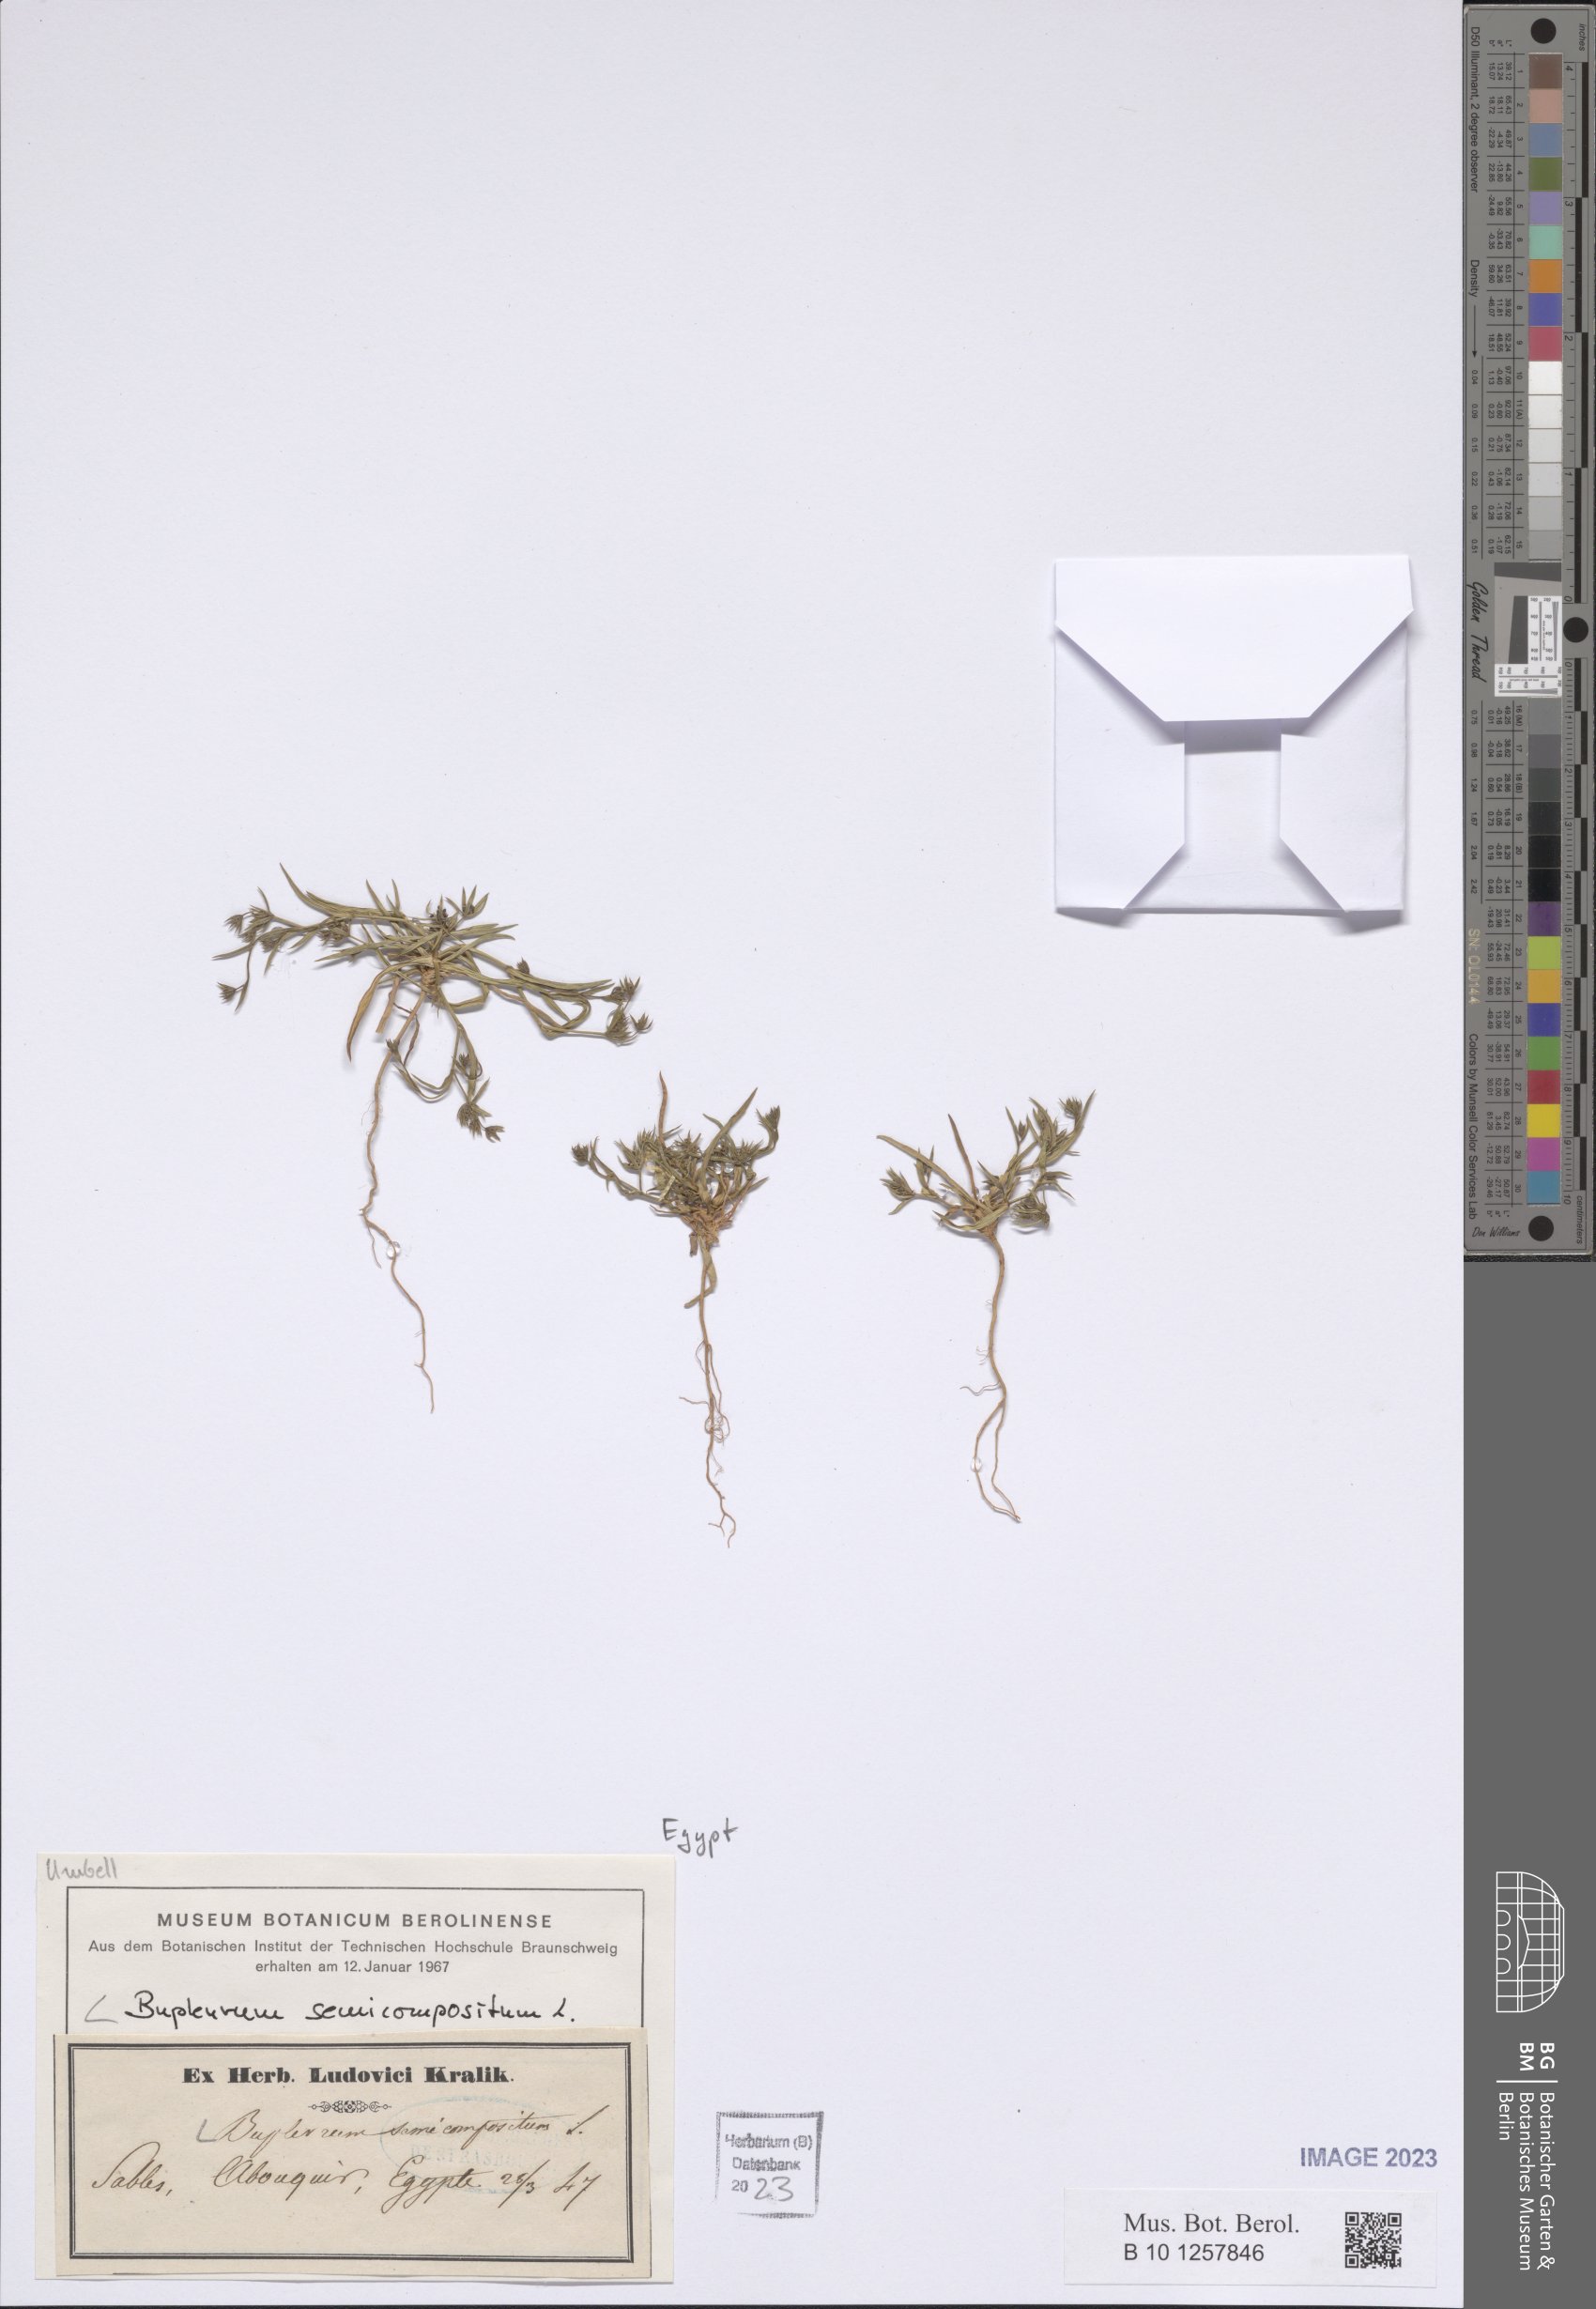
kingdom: Plantae
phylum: Tracheophyta
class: Magnoliopsida
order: Apiales
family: Apiaceae
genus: Bupleurum
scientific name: Bupleurum semicompositum
